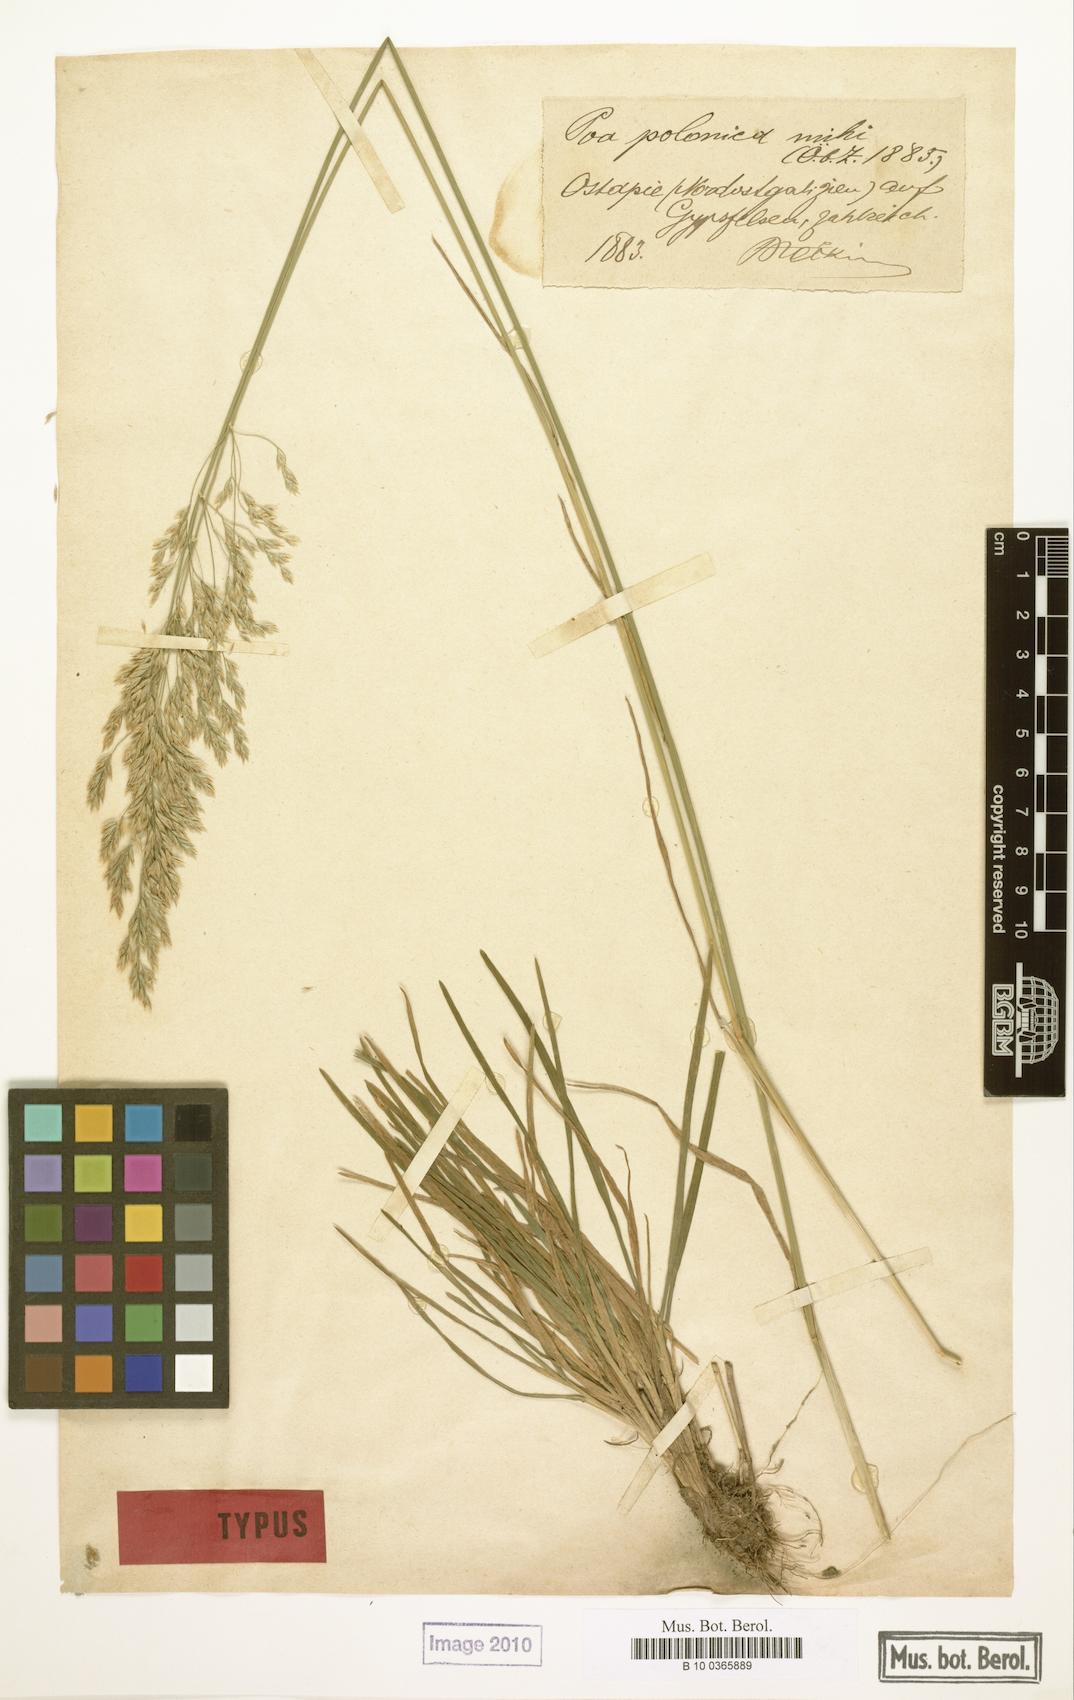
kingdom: Plantae
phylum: Tracheophyta
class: Liliopsida
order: Poales
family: Poaceae
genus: Poa
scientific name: Poa versicolor
